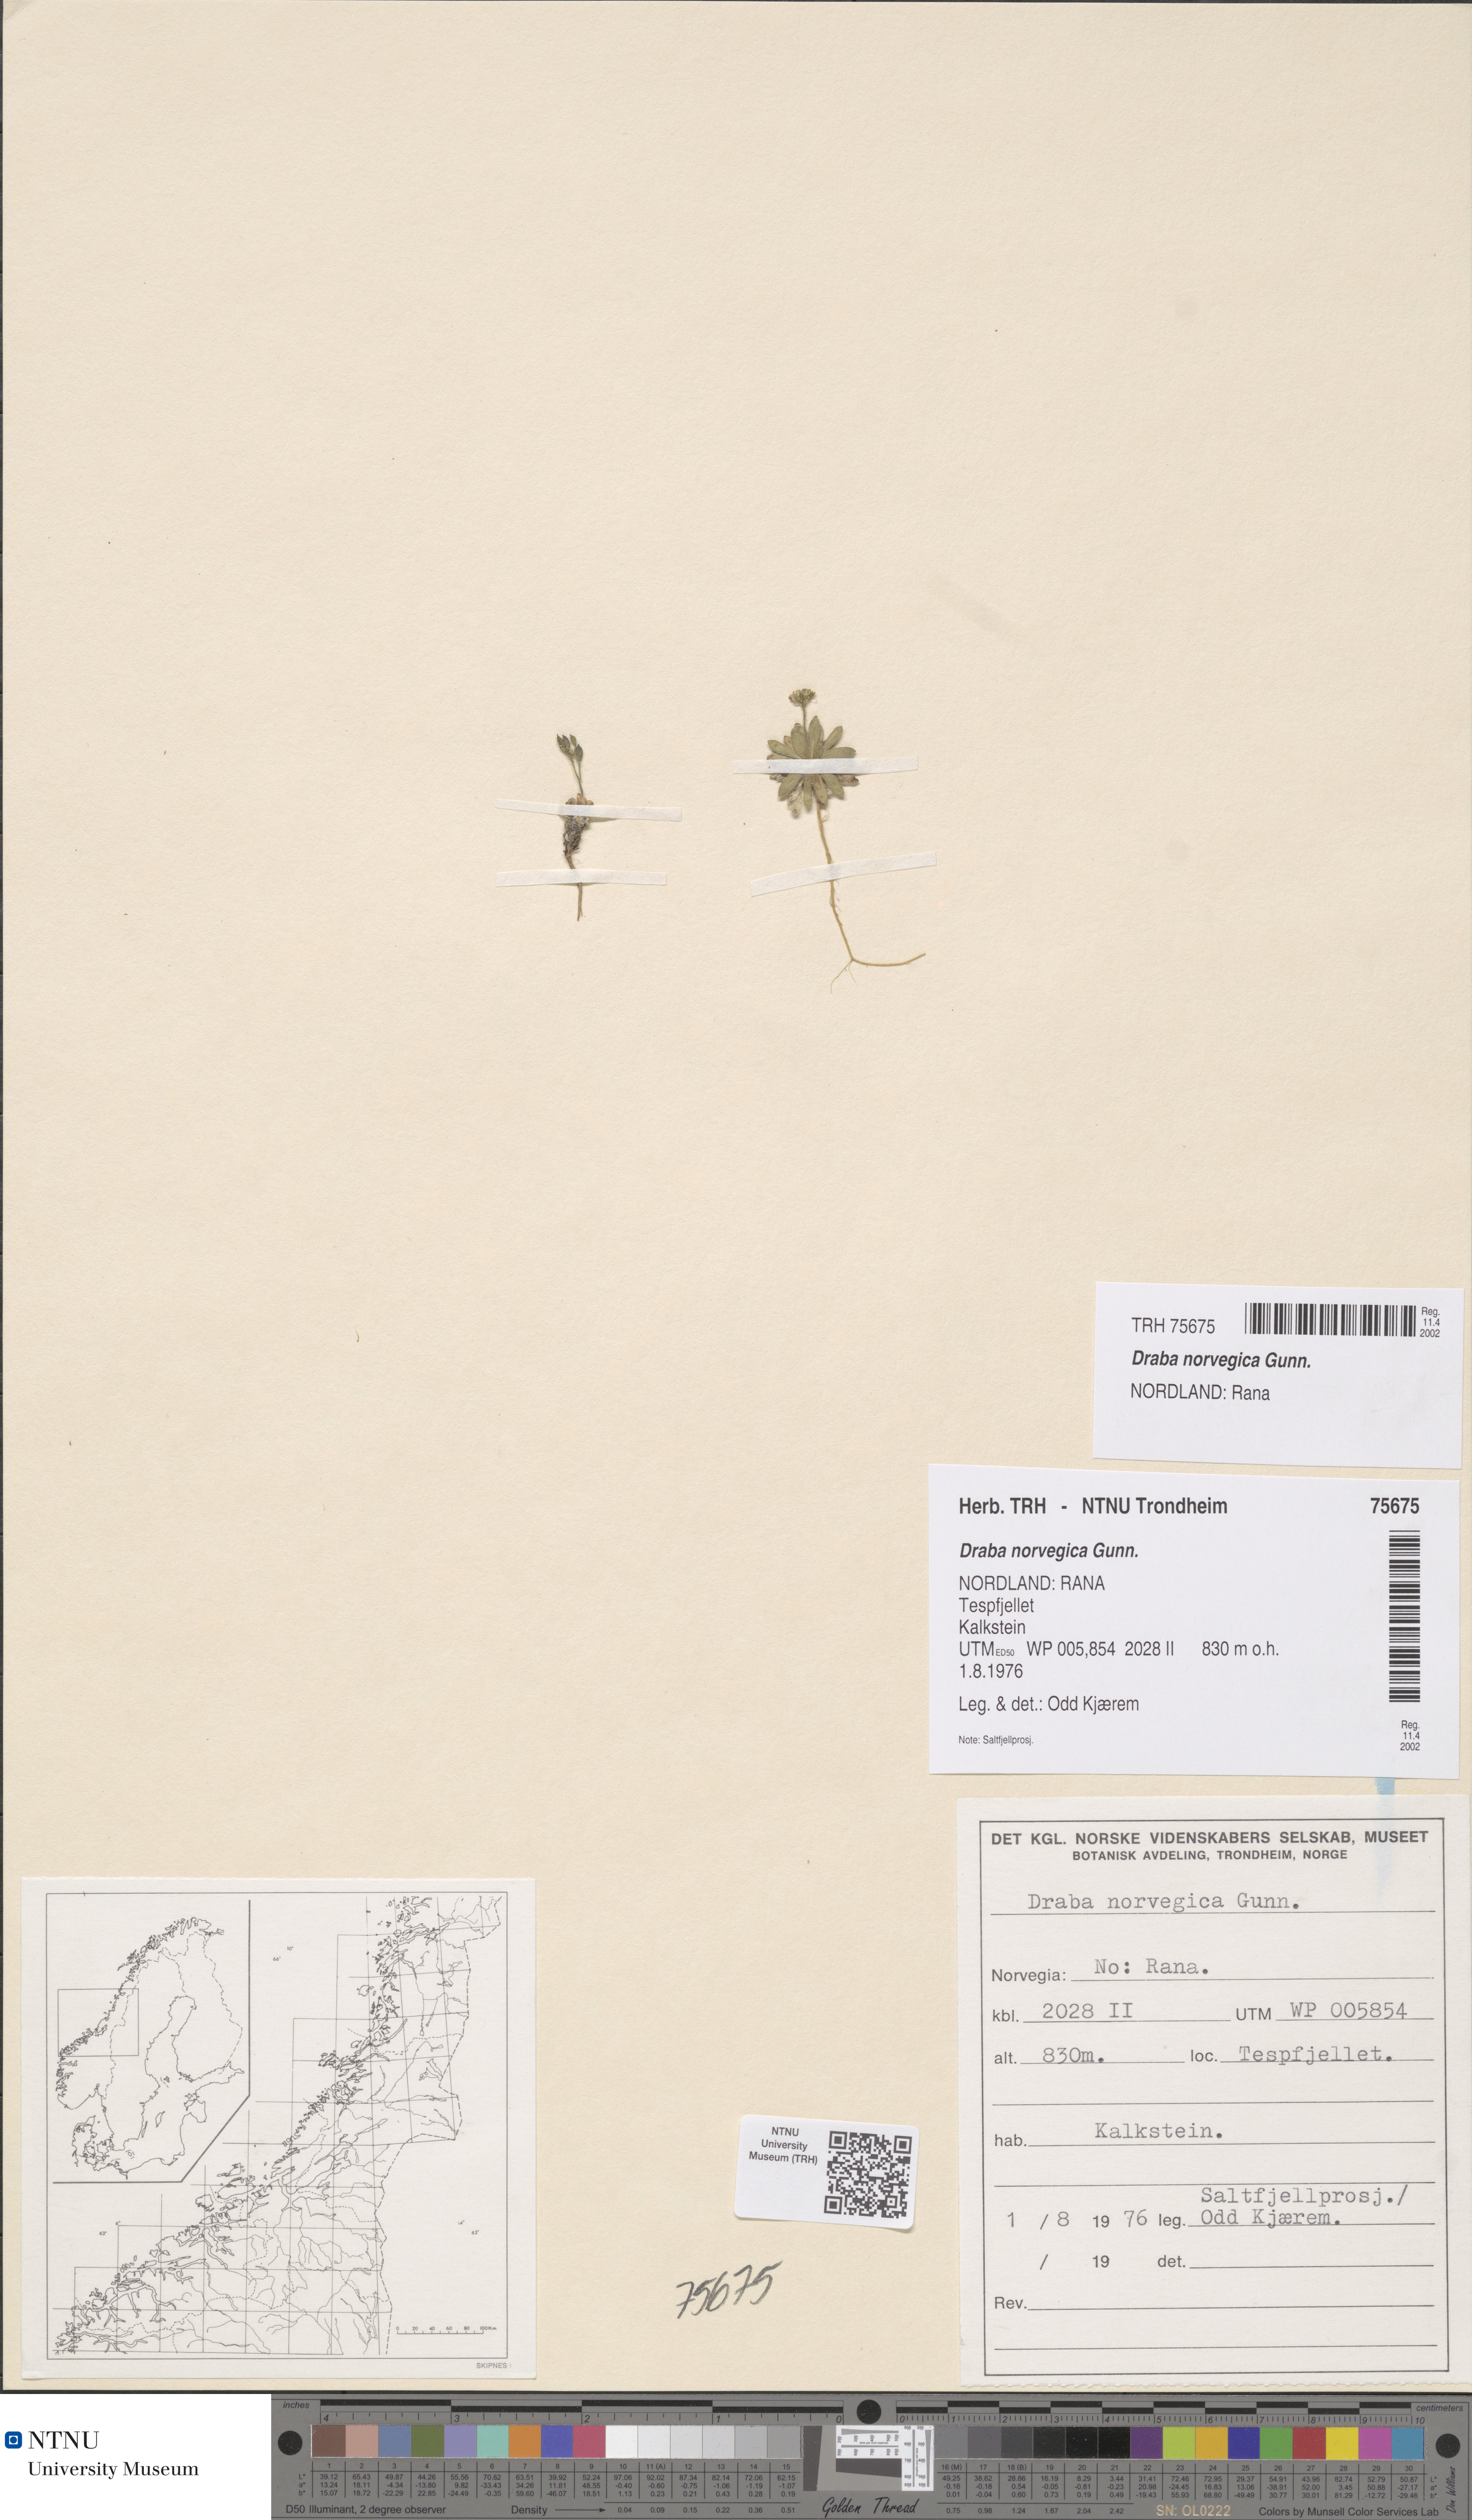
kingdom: Plantae
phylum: Tracheophyta
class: Magnoliopsida
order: Brassicales
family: Brassicaceae
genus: Draba
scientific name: Draba norvegica
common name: Rock whitlowgrass
